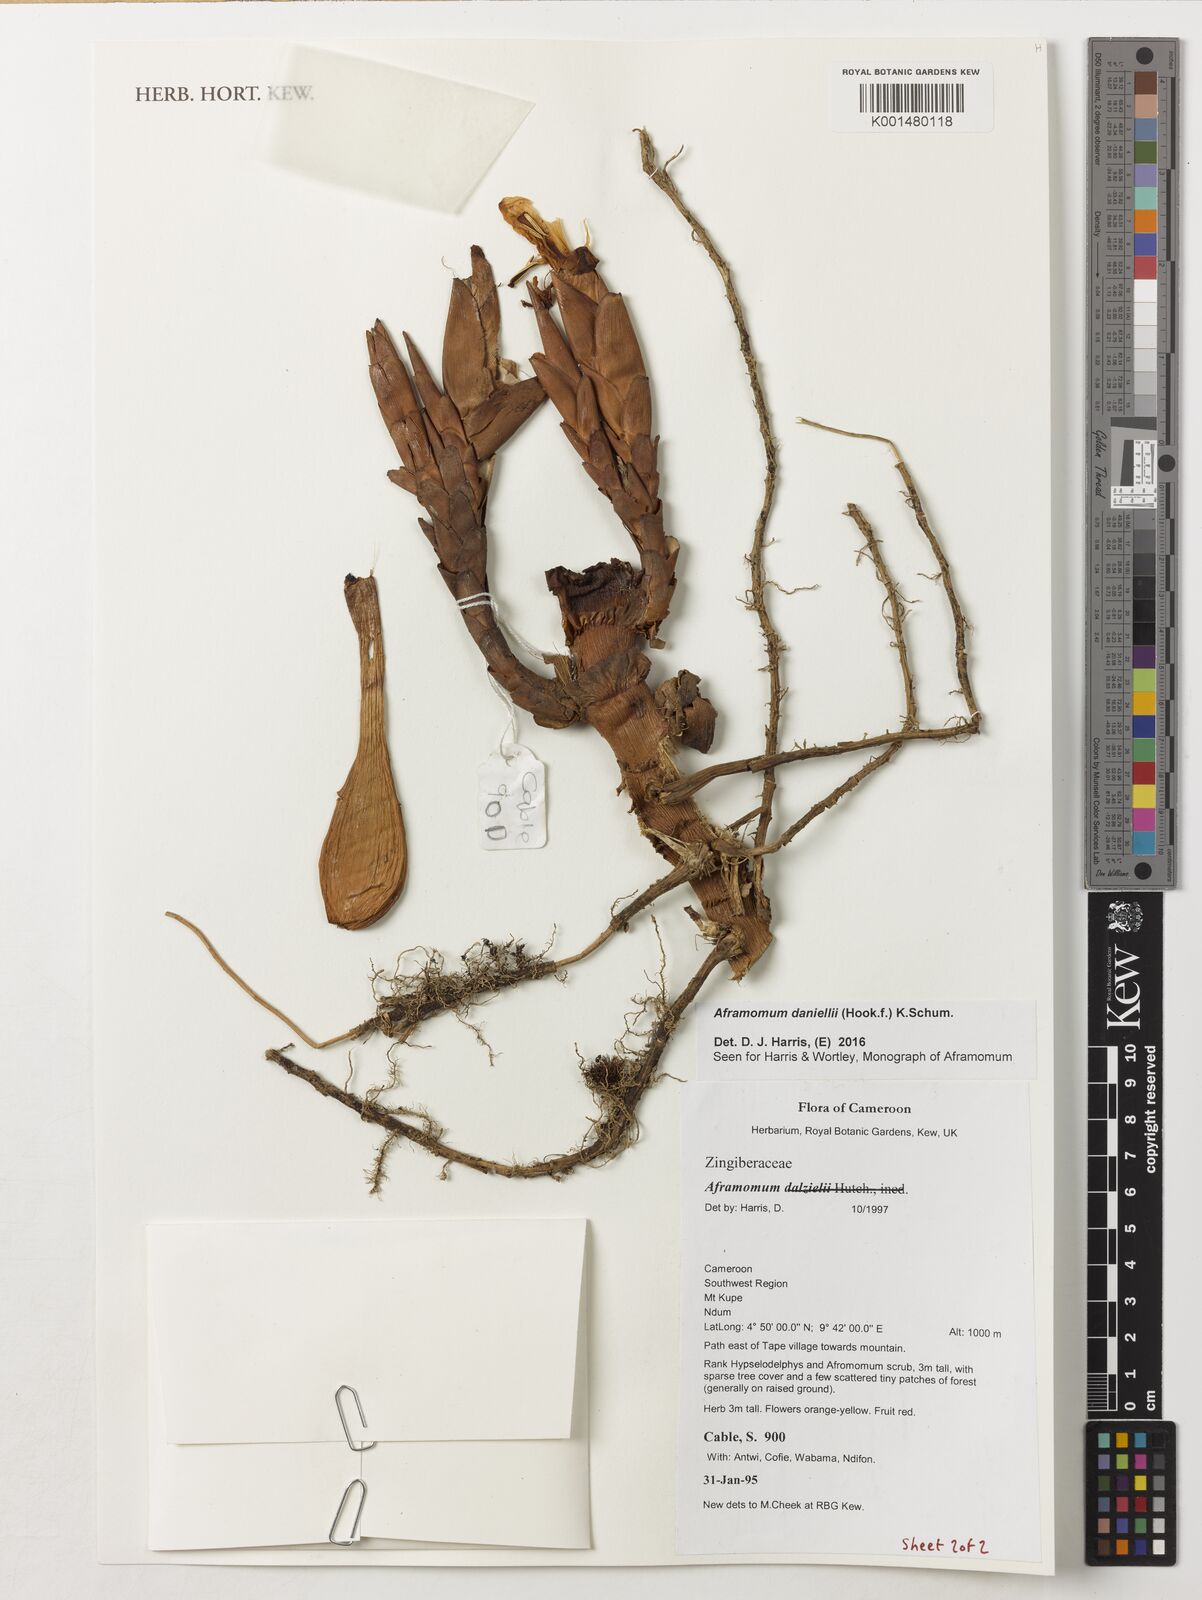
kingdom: Plantae
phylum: Tracheophyta
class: Liliopsida
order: Zingiberales
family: Zingiberaceae
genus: Aframomum
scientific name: Aframomum daniellii
